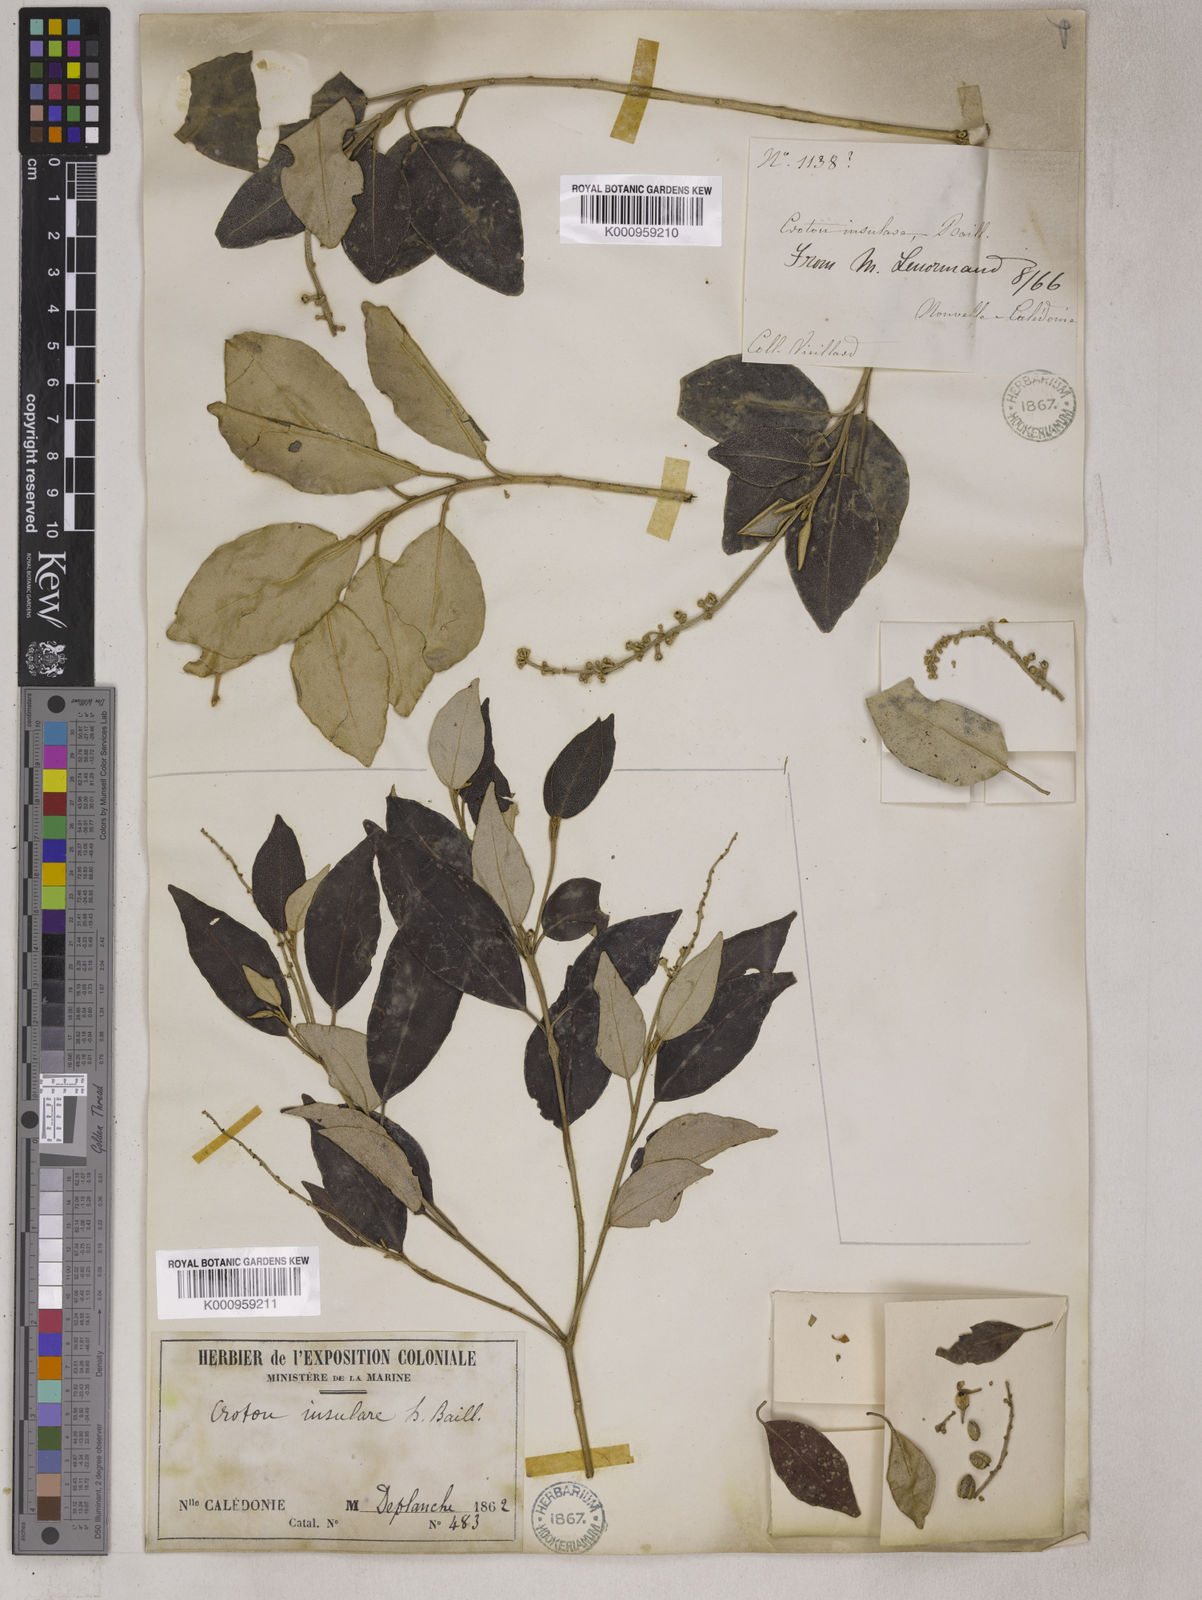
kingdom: Plantae
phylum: Tracheophyta
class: Magnoliopsida
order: Malpighiales
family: Euphorbiaceae
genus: Croton
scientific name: Croton insularis
